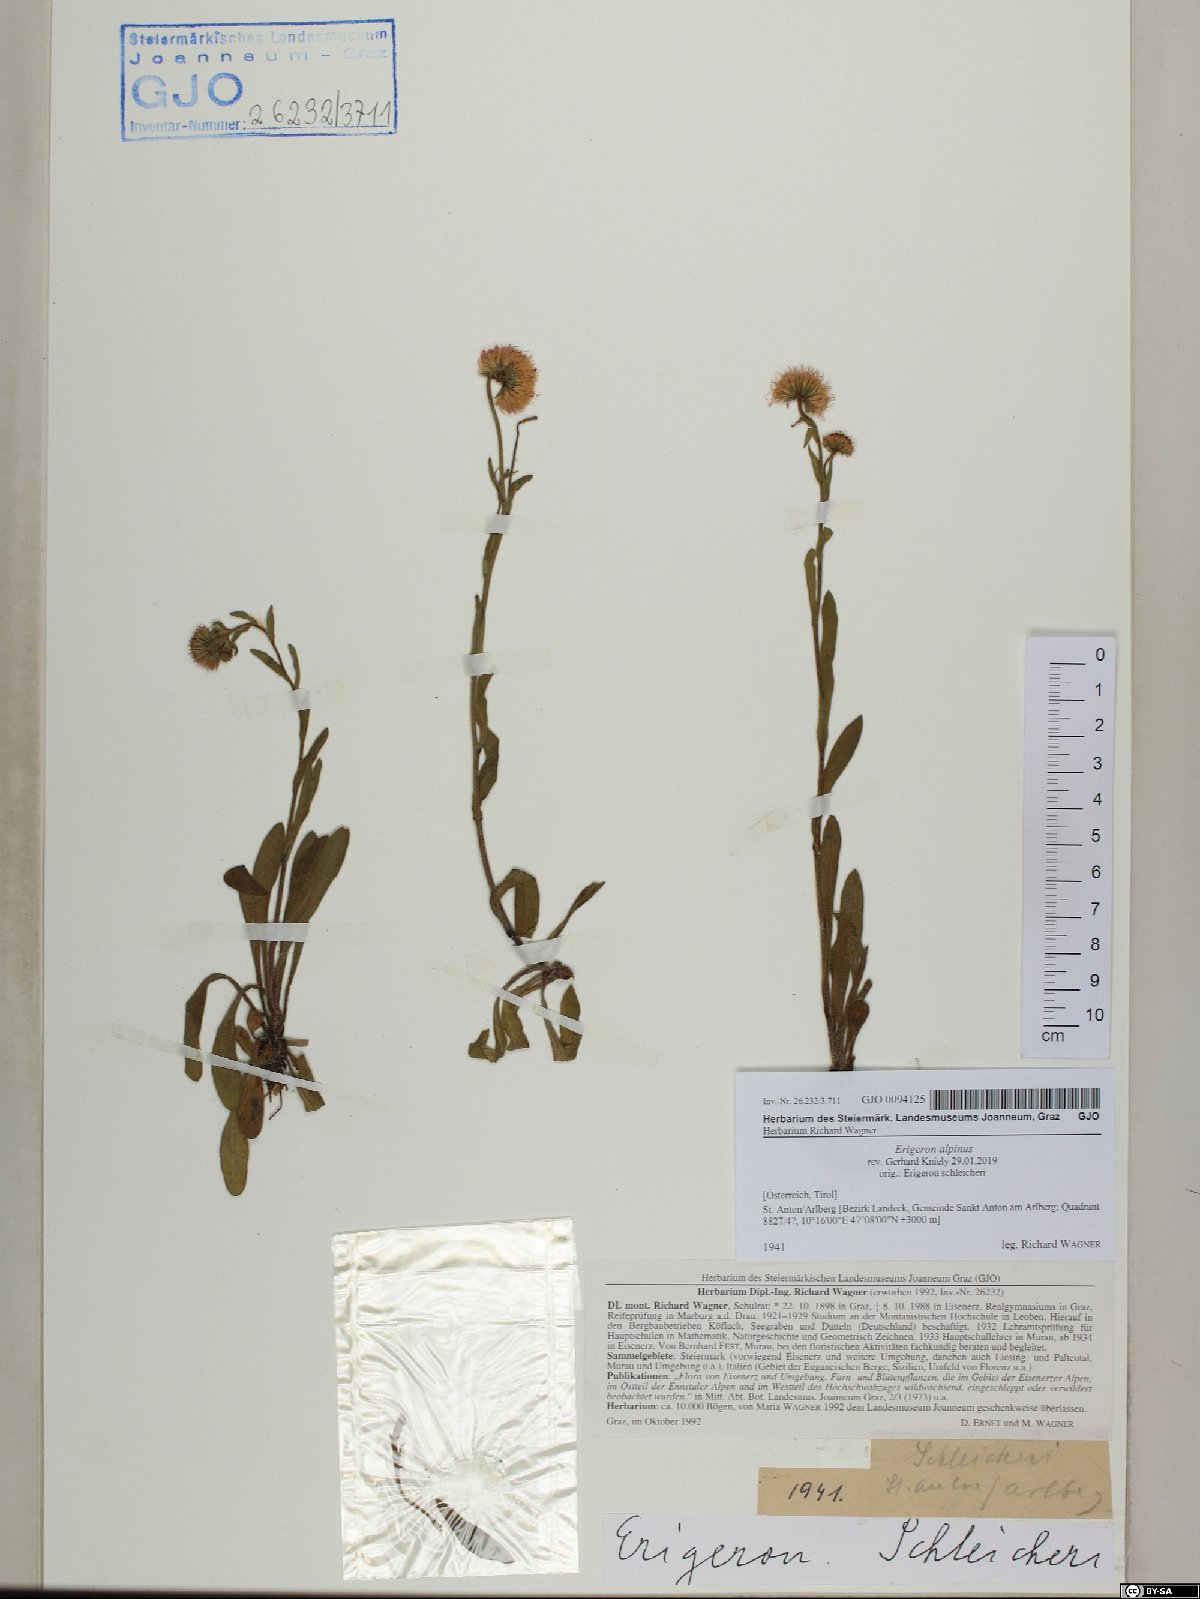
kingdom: Plantae
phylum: Tracheophyta
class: Magnoliopsida
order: Asterales
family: Asteraceae
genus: Erigeron
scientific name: Erigeron alpinus
